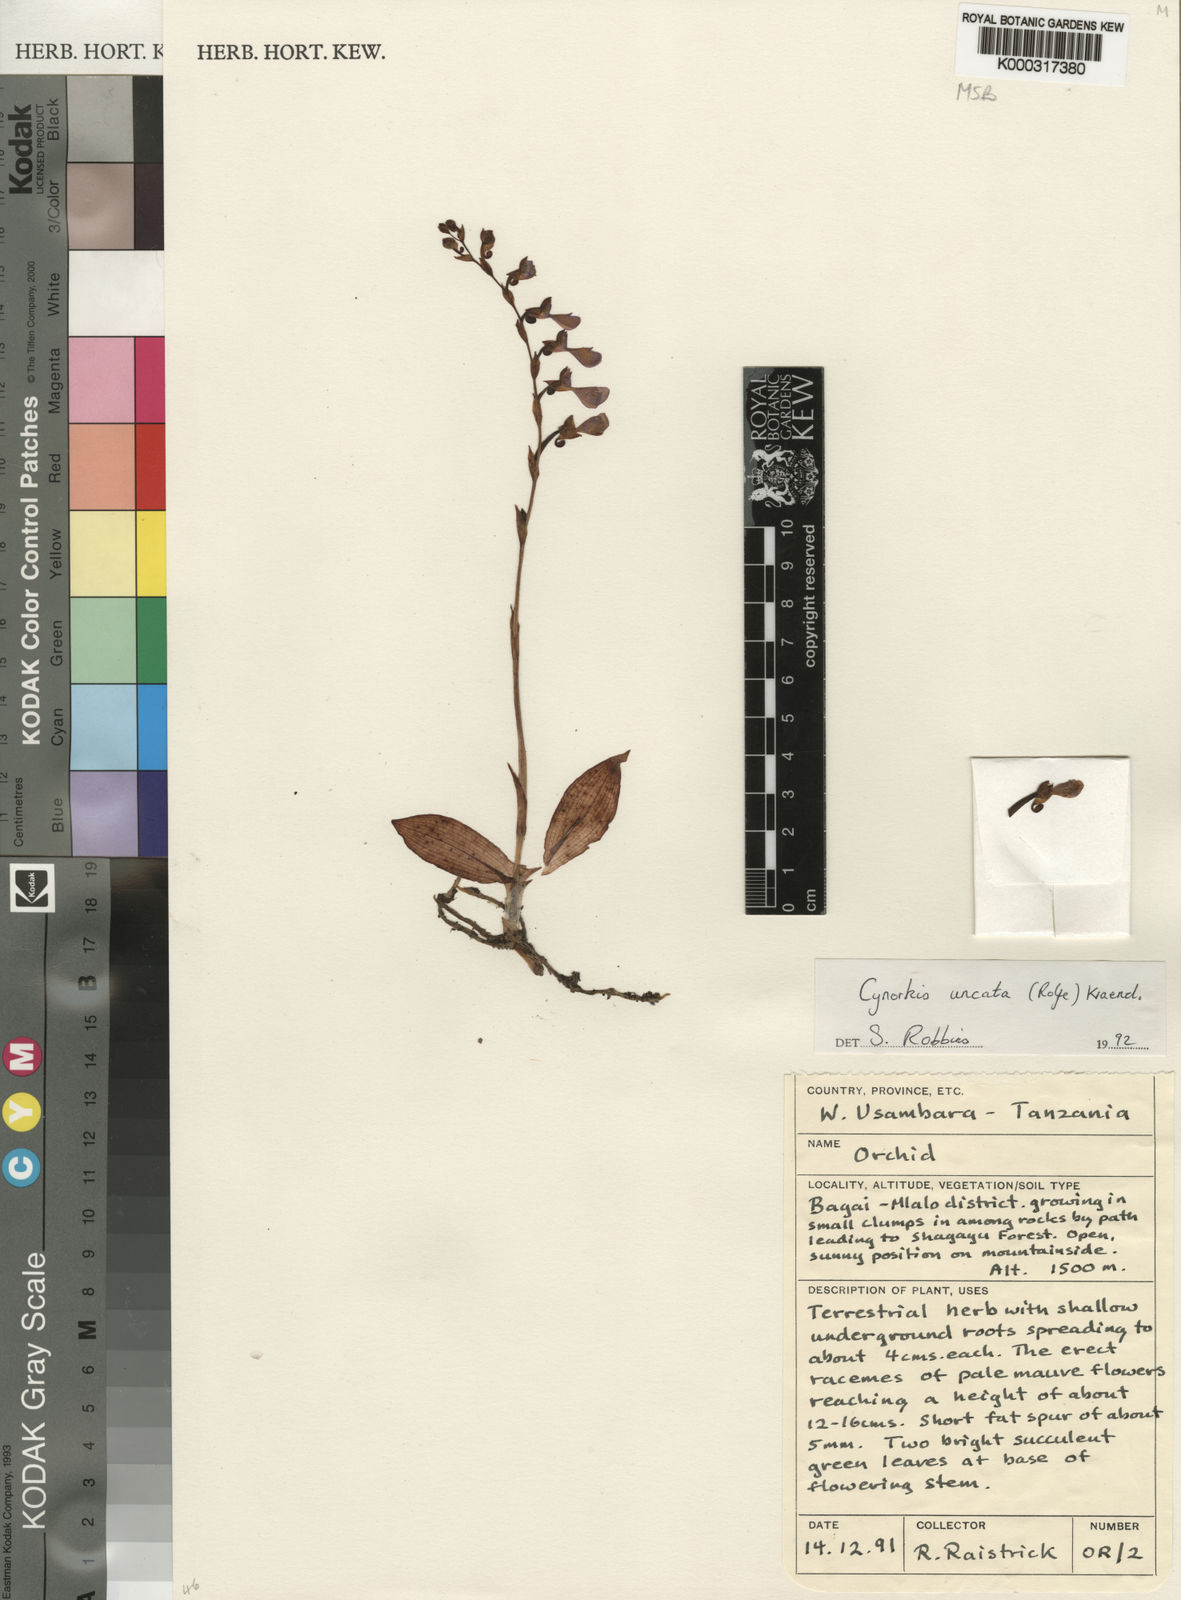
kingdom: Plantae
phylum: Tracheophyta
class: Liliopsida
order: Asparagales
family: Orchidaceae
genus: Cynorkis
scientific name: Cynorkis uncata
